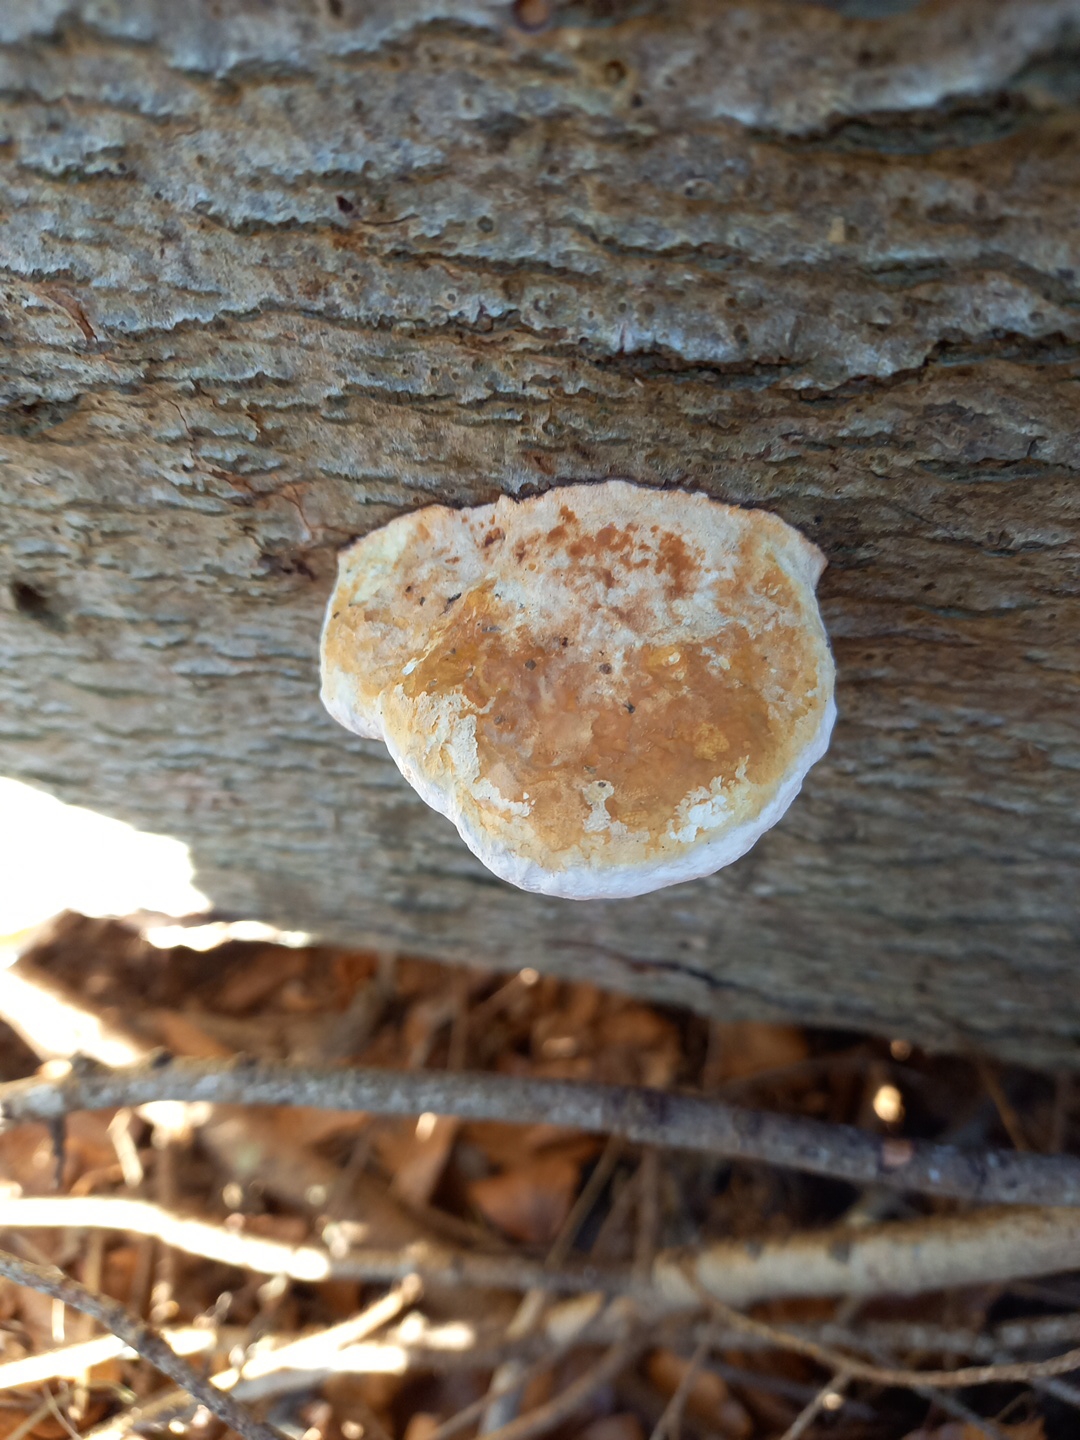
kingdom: Fungi
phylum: Basidiomycota
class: Agaricomycetes
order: Polyporales
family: Fomitopsidaceae
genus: Fomitopsis
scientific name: Fomitopsis pinicola
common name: randbæltet hovporesvamp
